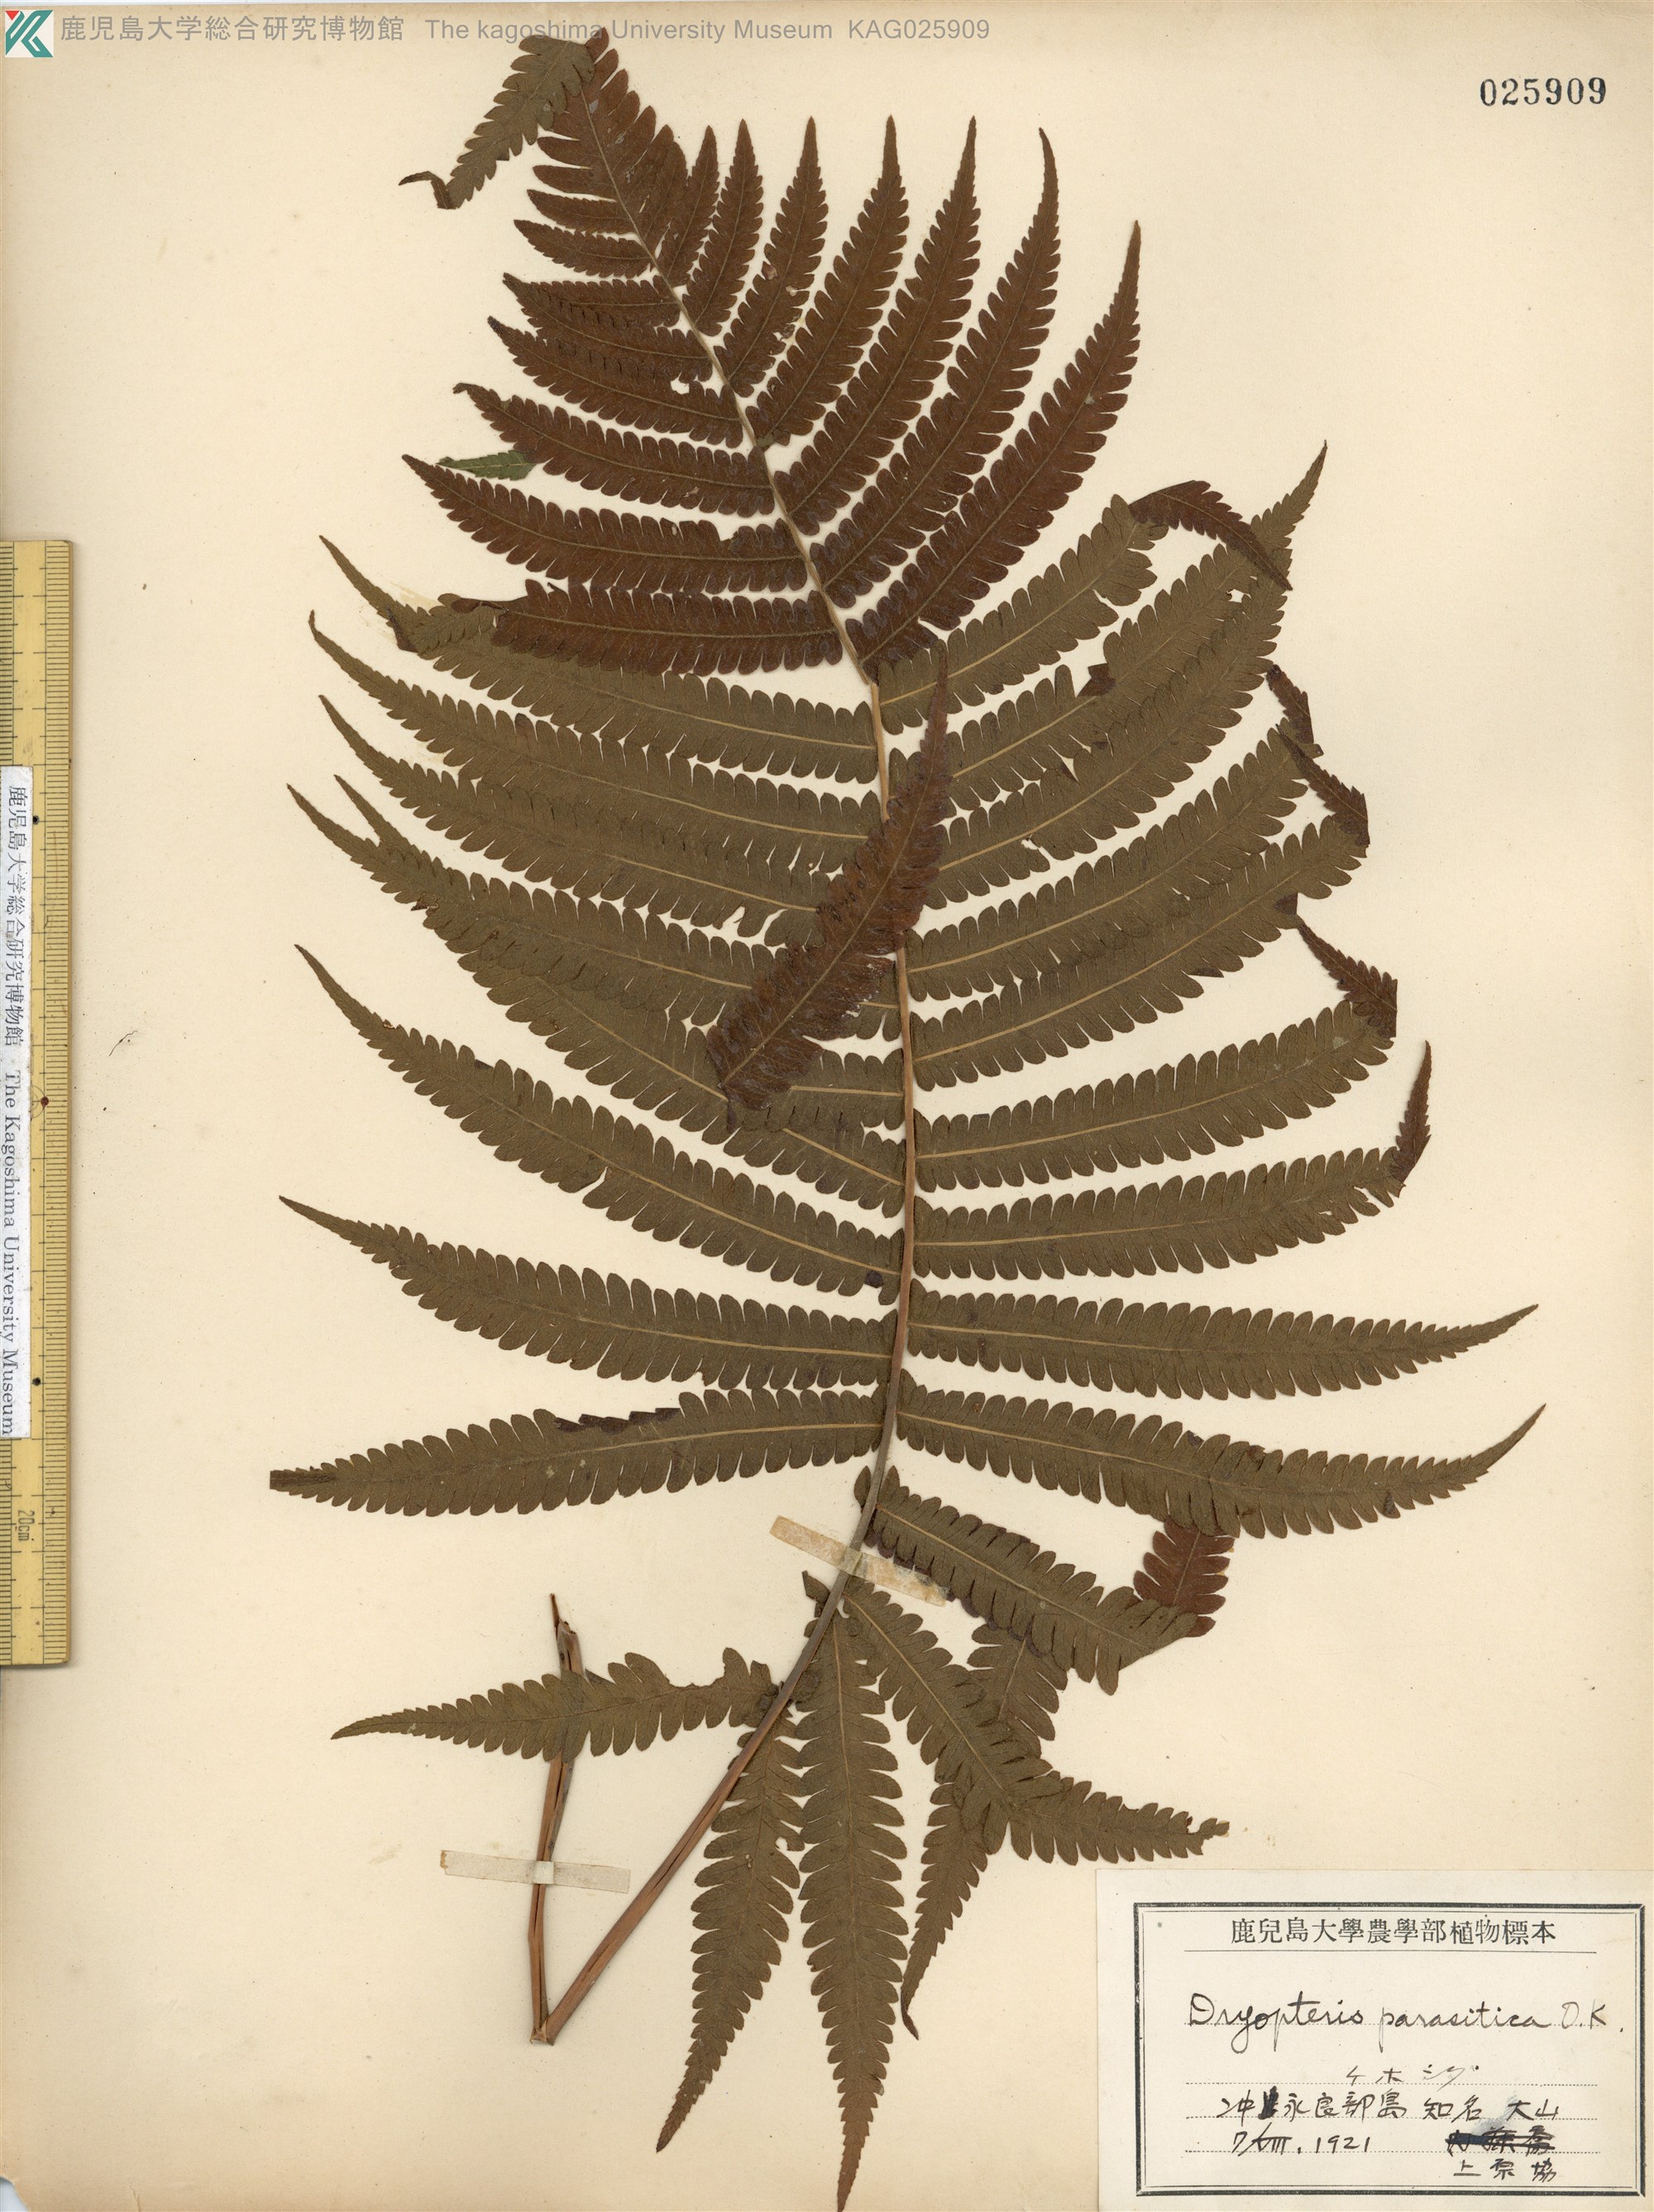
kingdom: Plantae
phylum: Tracheophyta
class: Polypodiopsida
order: Polypodiales
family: Thelypteridaceae
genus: Christella
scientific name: Christella parasitica
